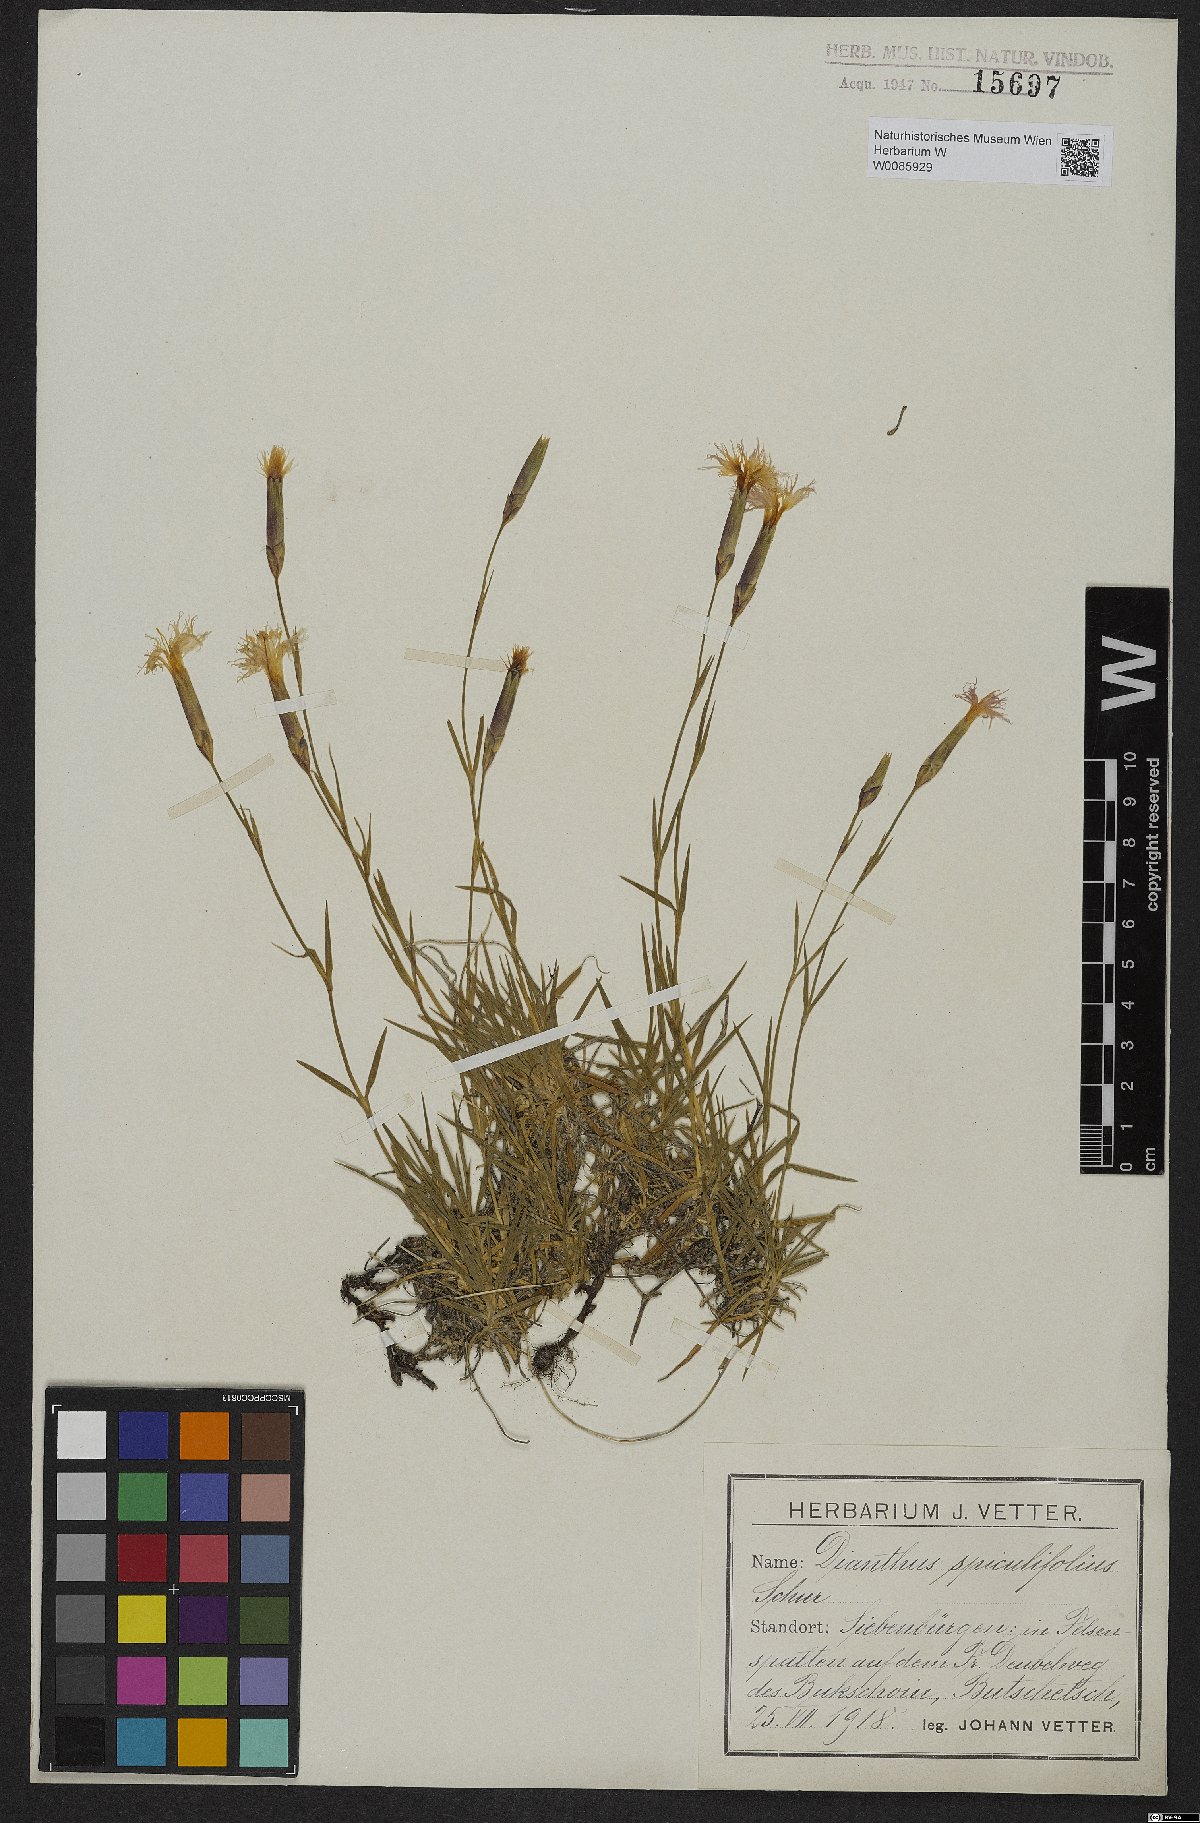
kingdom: Plantae
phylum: Tracheophyta
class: Magnoliopsida
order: Caryophyllales
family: Caryophyllaceae
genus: Dianthus
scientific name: Dianthus glacialis
